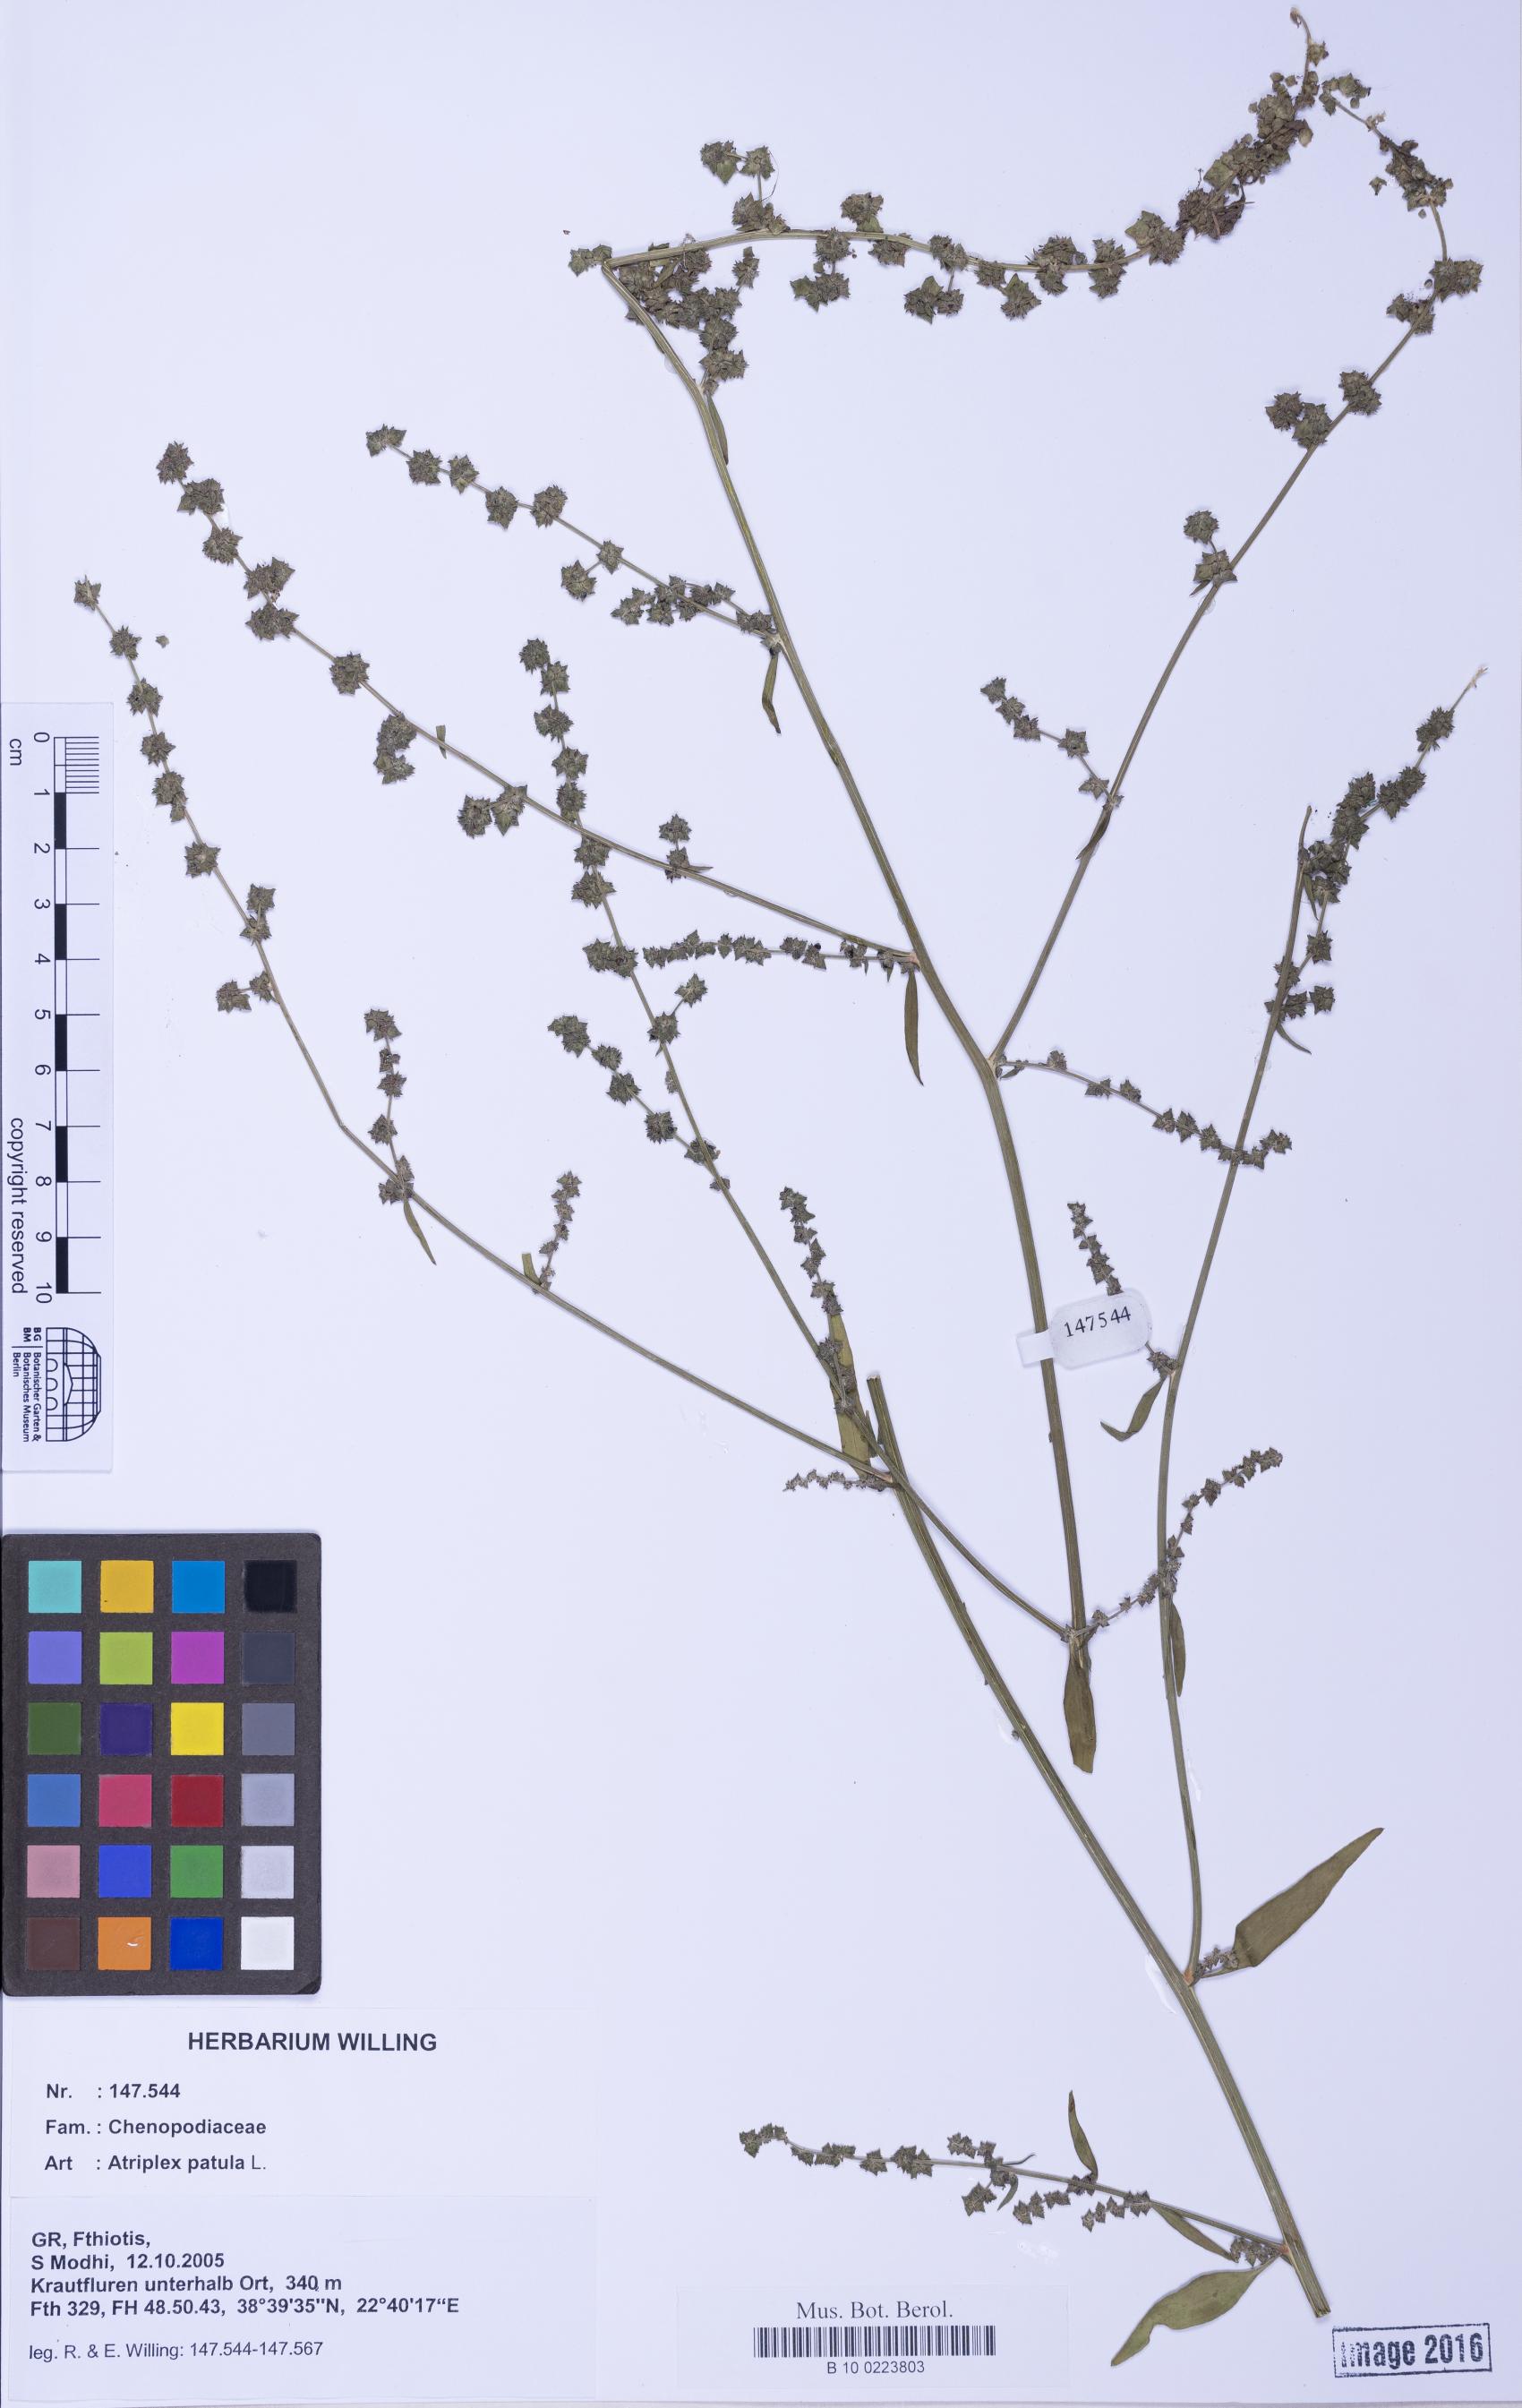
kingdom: Plantae
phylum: Tracheophyta
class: Magnoliopsida
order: Caryophyllales
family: Amaranthaceae
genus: Atriplex
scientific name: Atriplex patula
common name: Common orache
